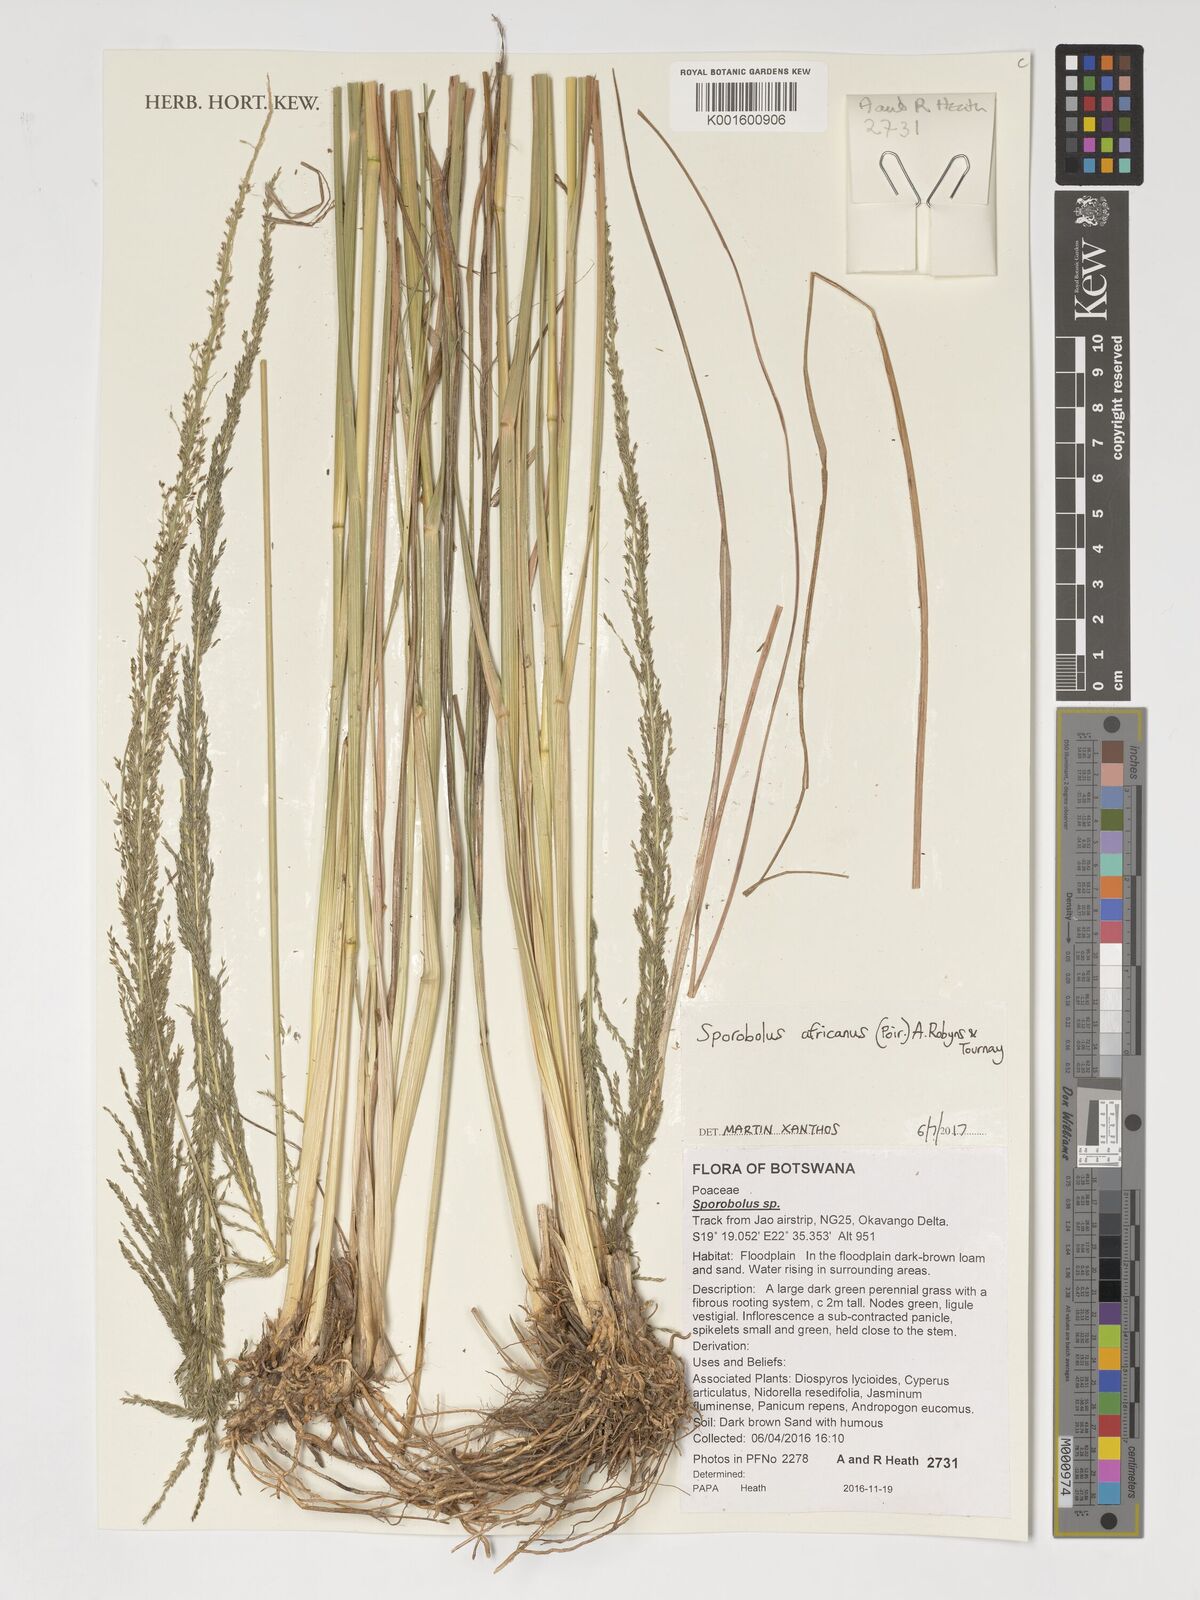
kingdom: Plantae
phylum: Tracheophyta
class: Liliopsida
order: Poales
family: Poaceae
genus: Sporobolus
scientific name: Sporobolus africanus
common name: African dropseed
